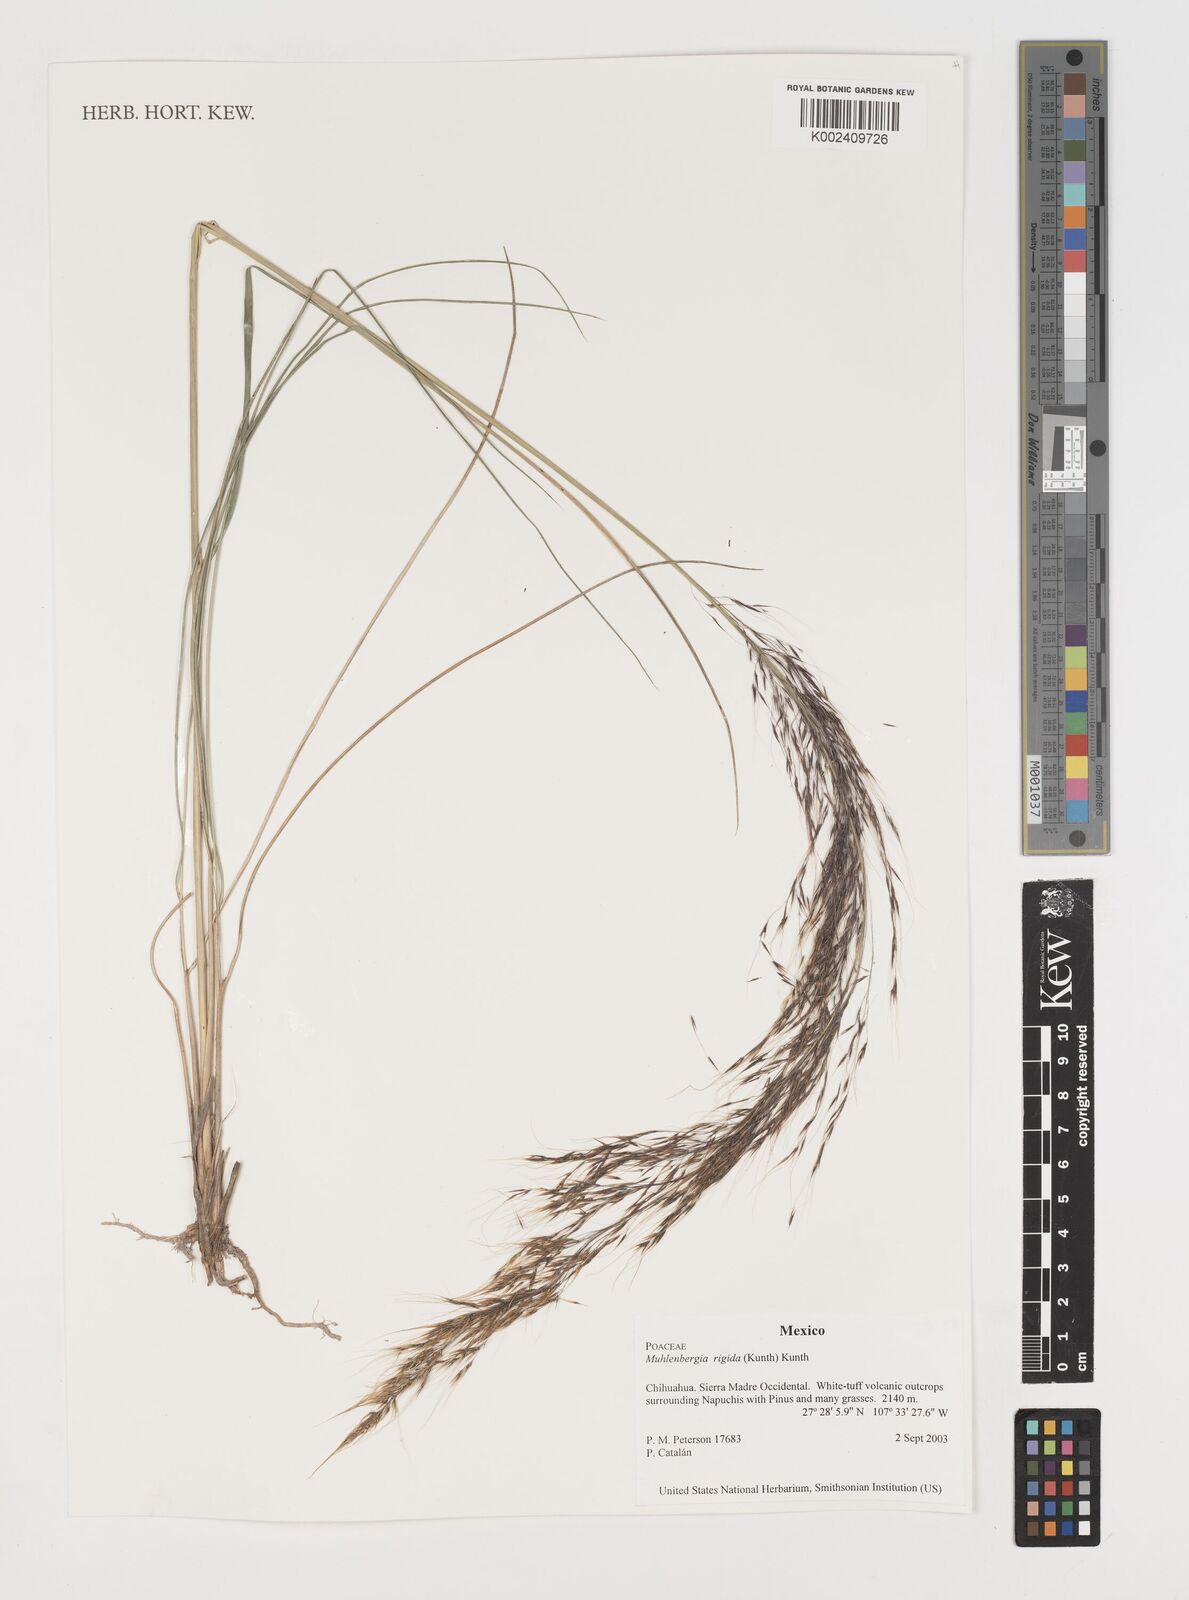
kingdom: Plantae
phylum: Tracheophyta
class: Liliopsida
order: Poales
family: Poaceae
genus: Muhlenbergia
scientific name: Muhlenbergia rigida
